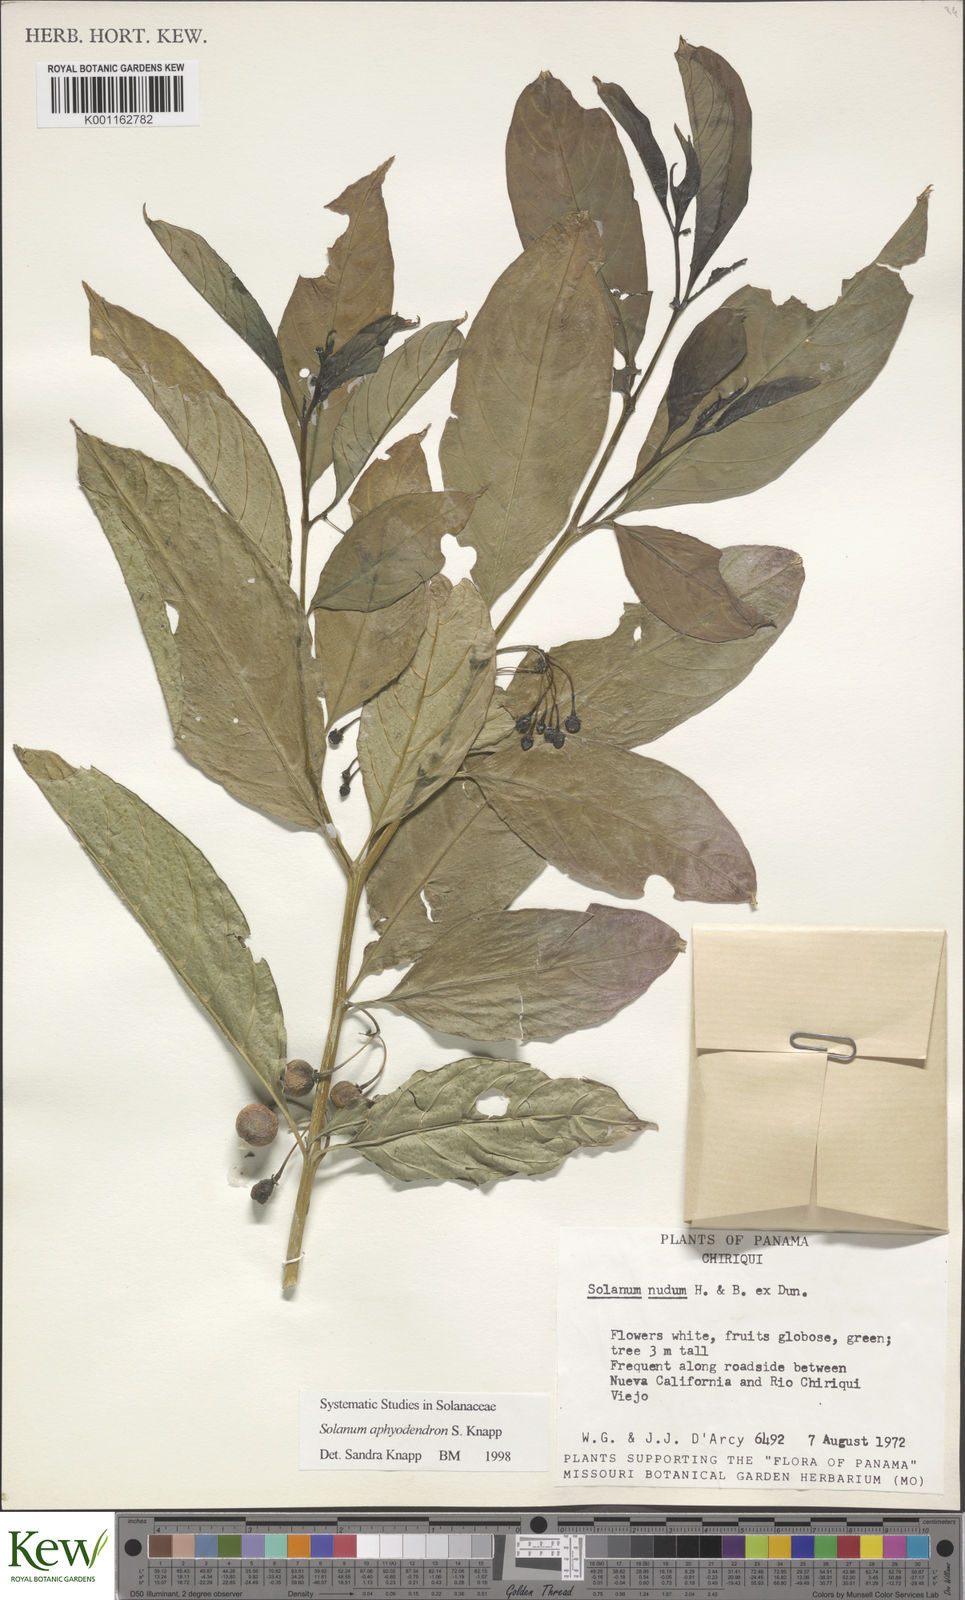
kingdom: Plantae
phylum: Tracheophyta
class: Magnoliopsida
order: Solanales
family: Solanaceae
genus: Solanum
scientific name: Solanum aphyodendron
